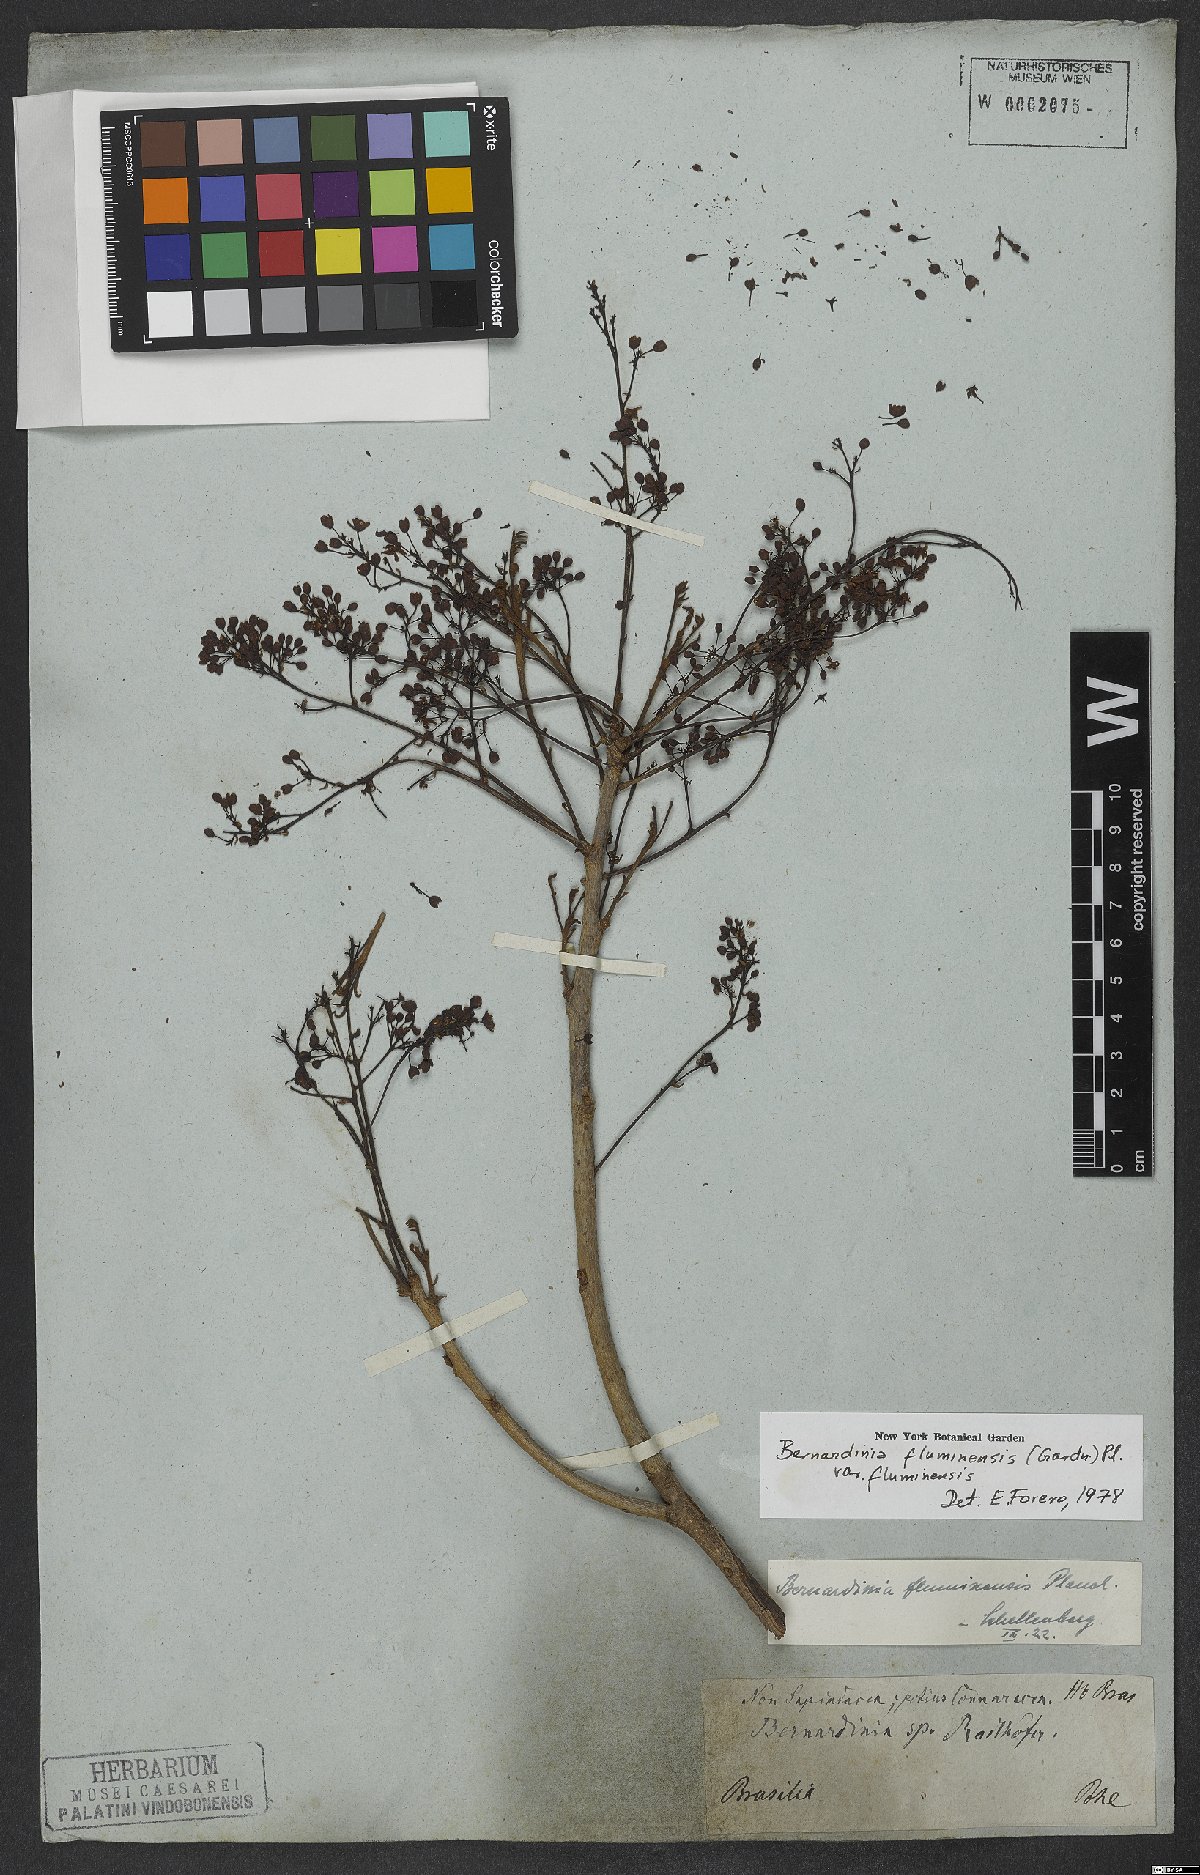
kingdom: Plantae
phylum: Tracheophyta
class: Magnoliopsida
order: Oxalidales
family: Connaraceae
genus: Rourea
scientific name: Rourea fluminensis
